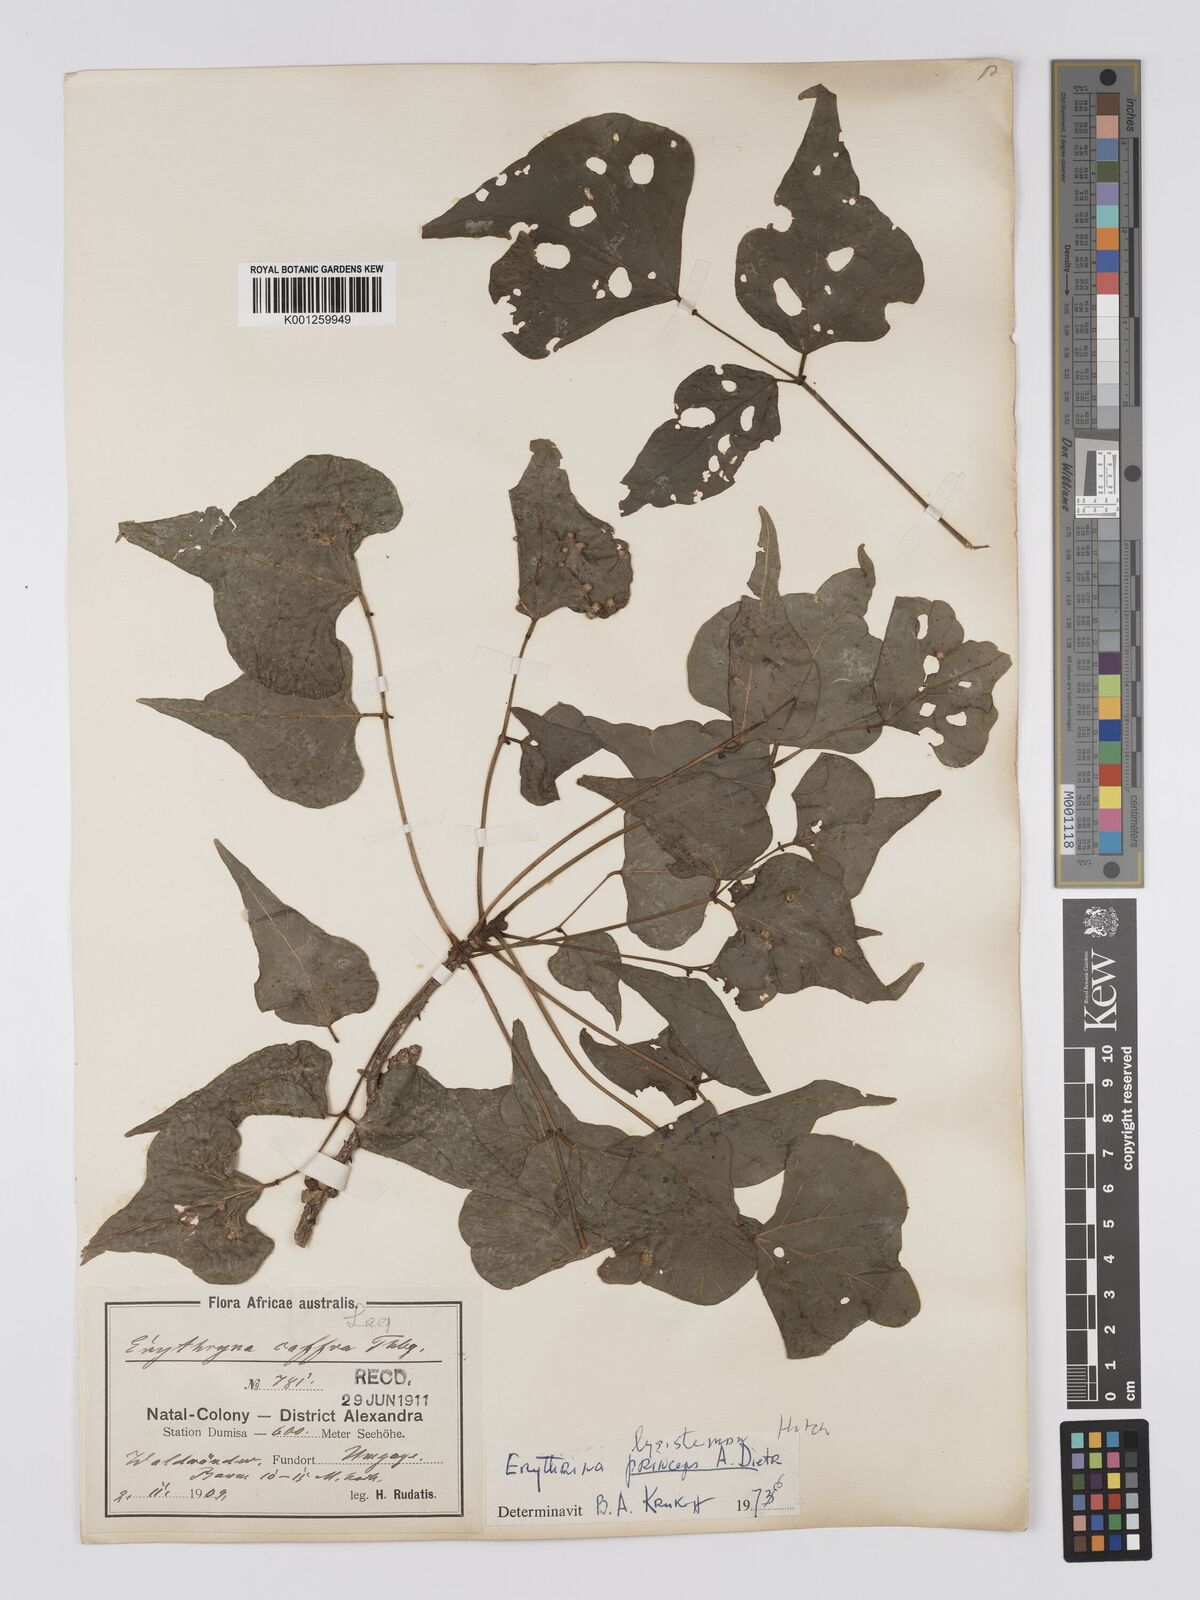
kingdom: Plantae
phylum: Tracheophyta
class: Magnoliopsida
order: Fabales
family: Fabaceae
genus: Erythrina
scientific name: Erythrina lysistemon
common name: Common coral tree
